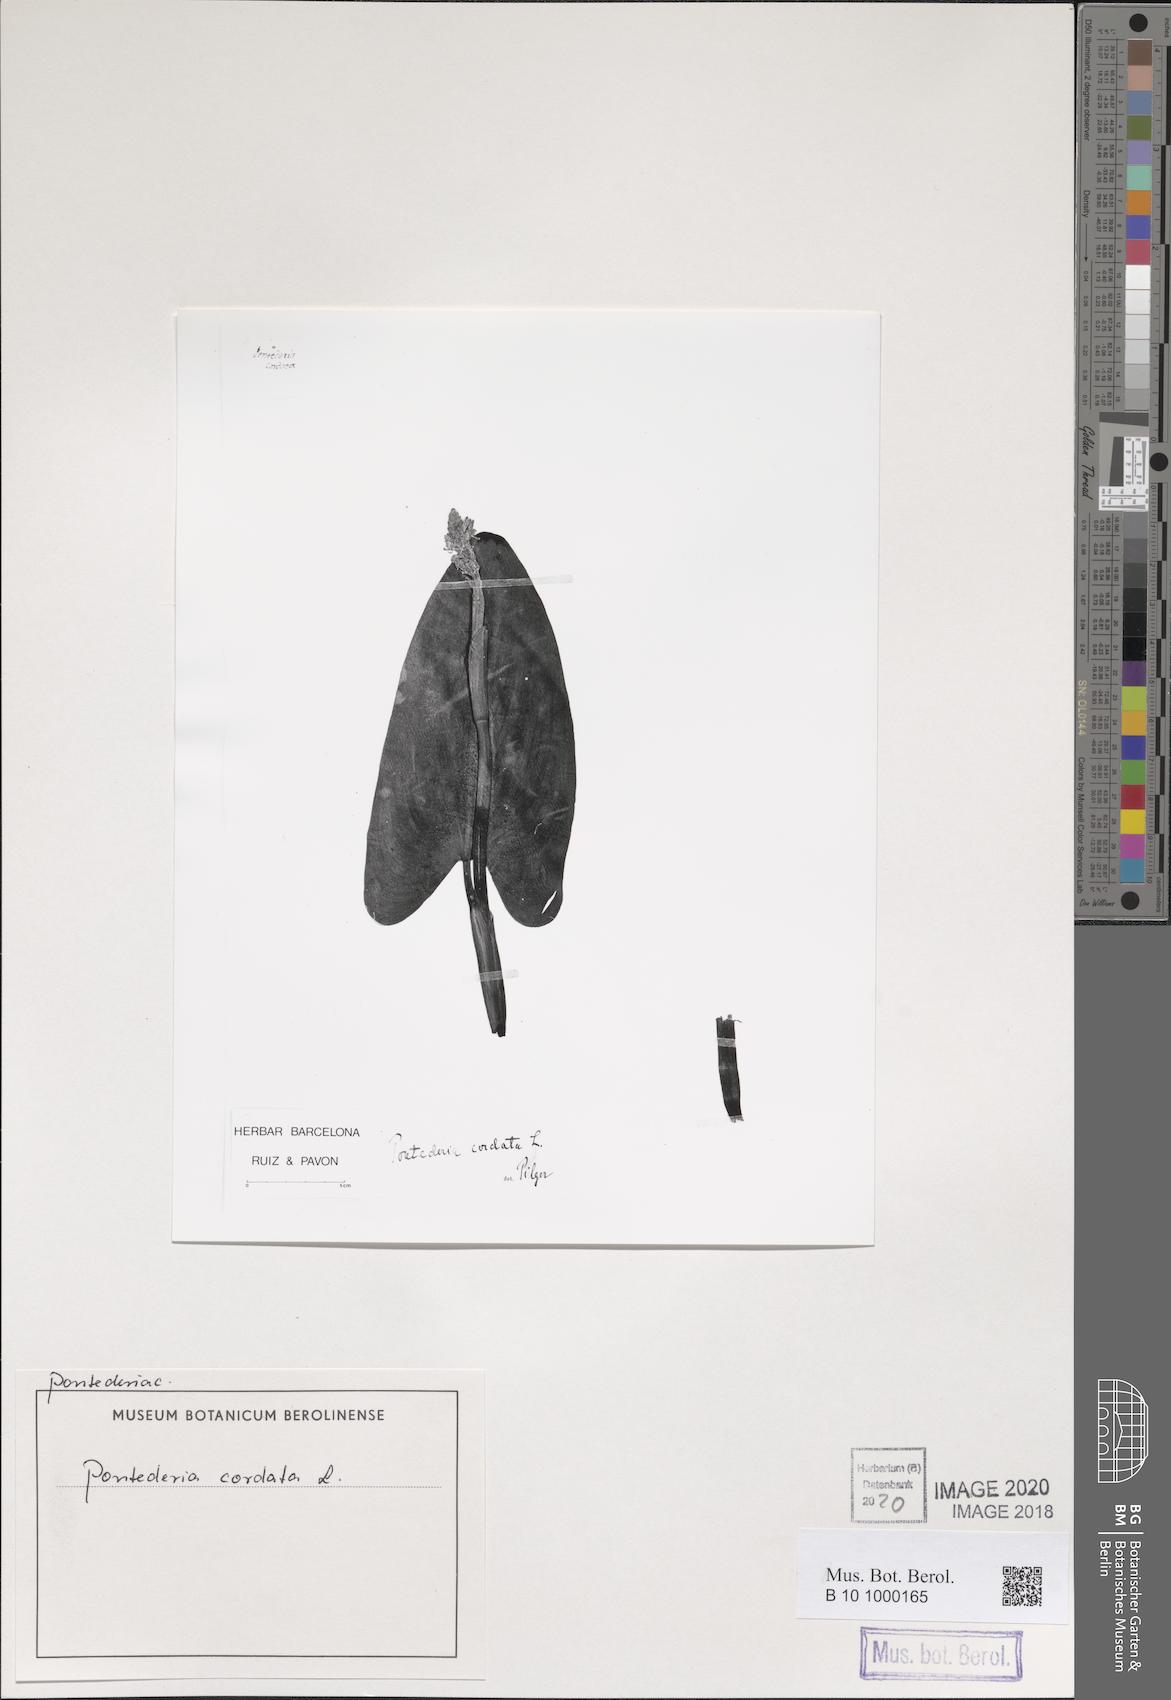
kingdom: Plantae
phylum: Tracheophyta
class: Liliopsida
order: Commelinales
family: Pontederiaceae
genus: Pontederia
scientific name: Pontederia cordata
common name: Pickerelweed
